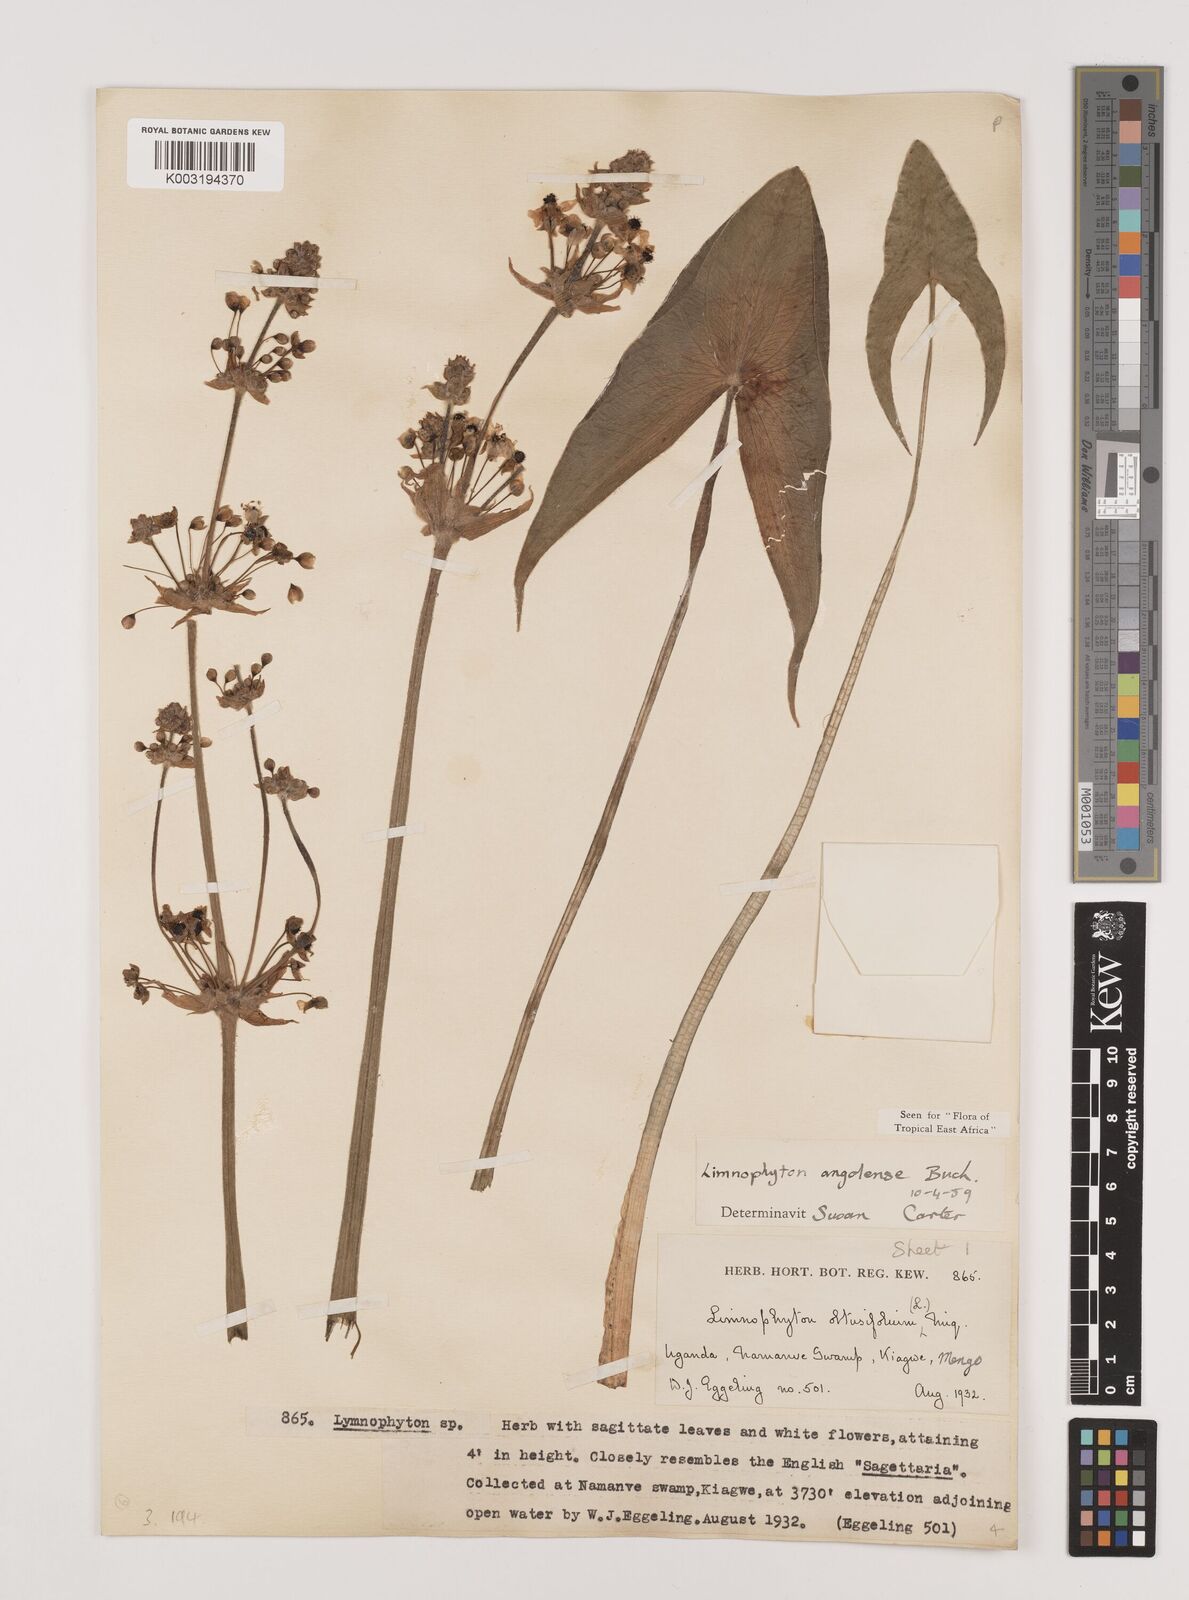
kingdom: Plantae
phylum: Tracheophyta
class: Liliopsida
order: Alismatales
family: Alismataceae
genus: Limnophyton
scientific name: Limnophyton angolense
